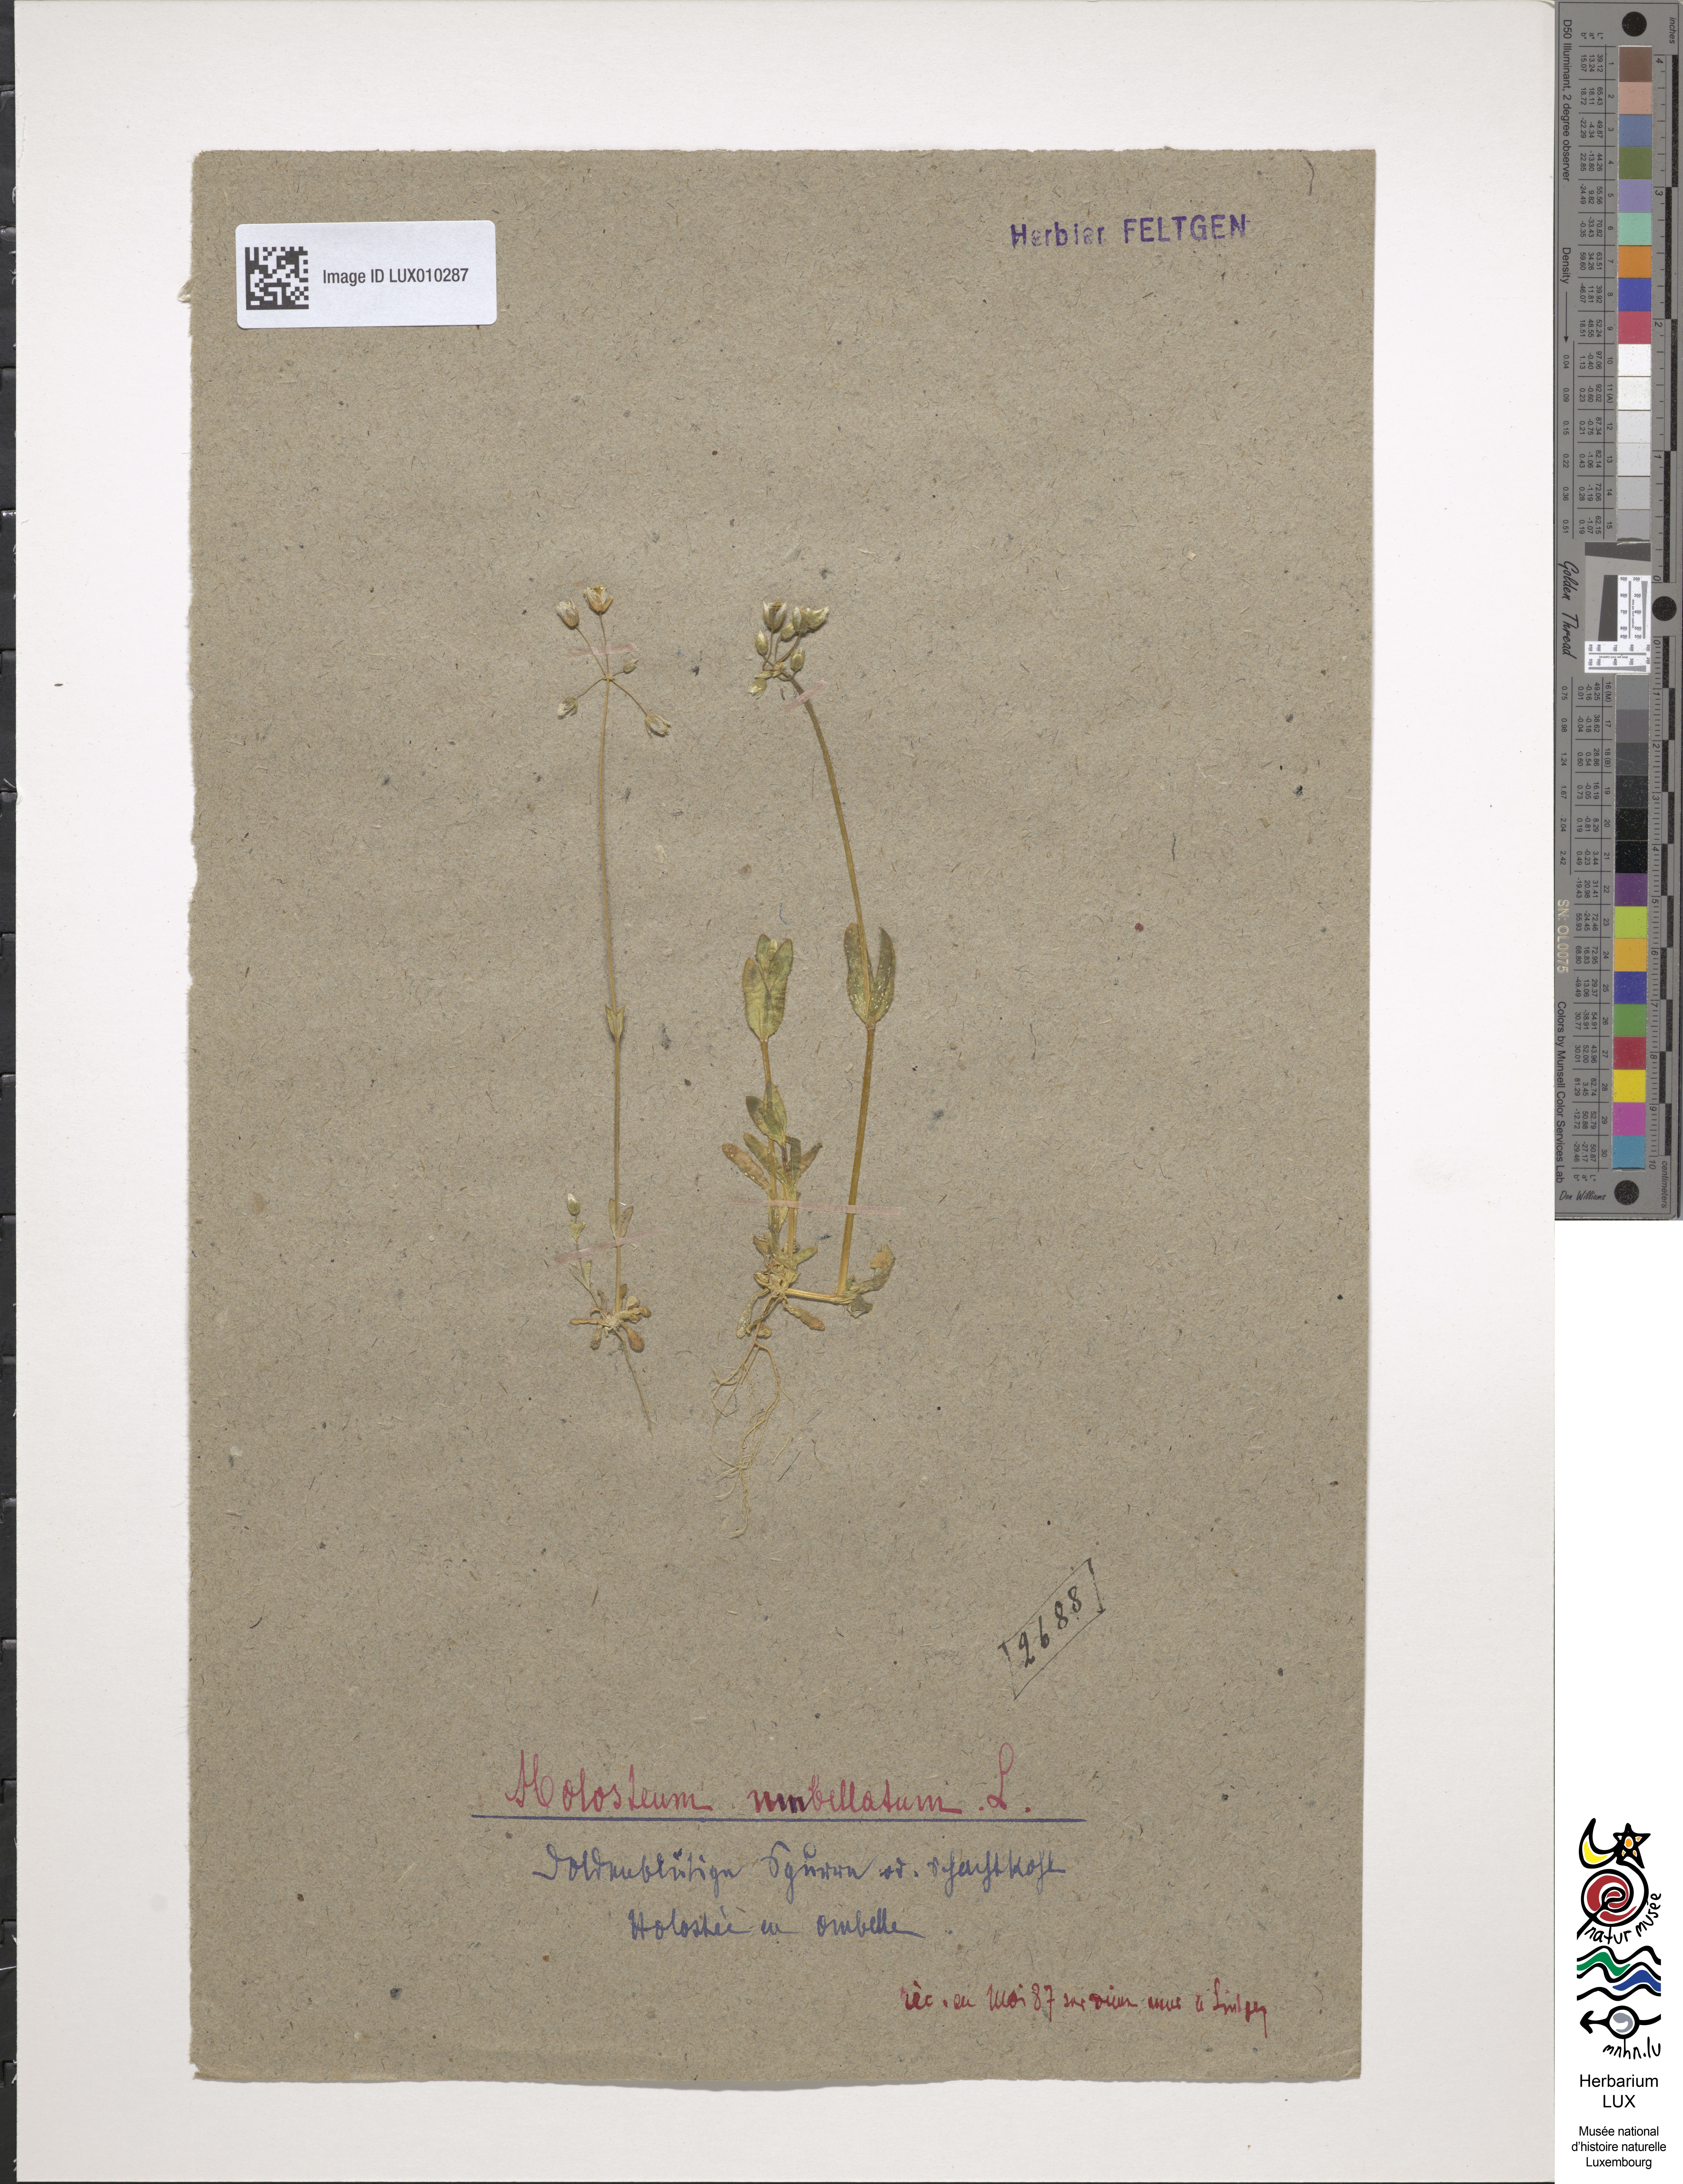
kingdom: Plantae
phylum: Tracheophyta
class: Magnoliopsida
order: Caryophyllales
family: Caryophyllaceae
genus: Holosteum
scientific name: Holosteum umbellatum
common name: Jagged chickweed
